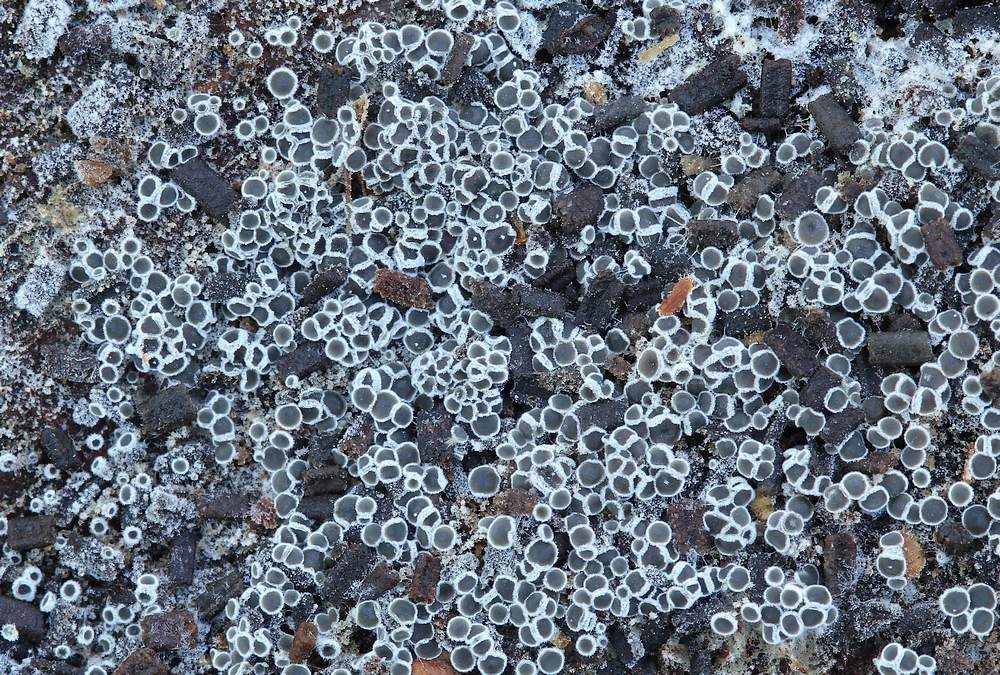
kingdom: Fungi
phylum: Ascomycota
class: Leotiomycetes
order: Helotiales
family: Arachnopezizaceae
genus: Eriopezia
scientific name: Eriopezia caesia
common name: ege-spindskive
